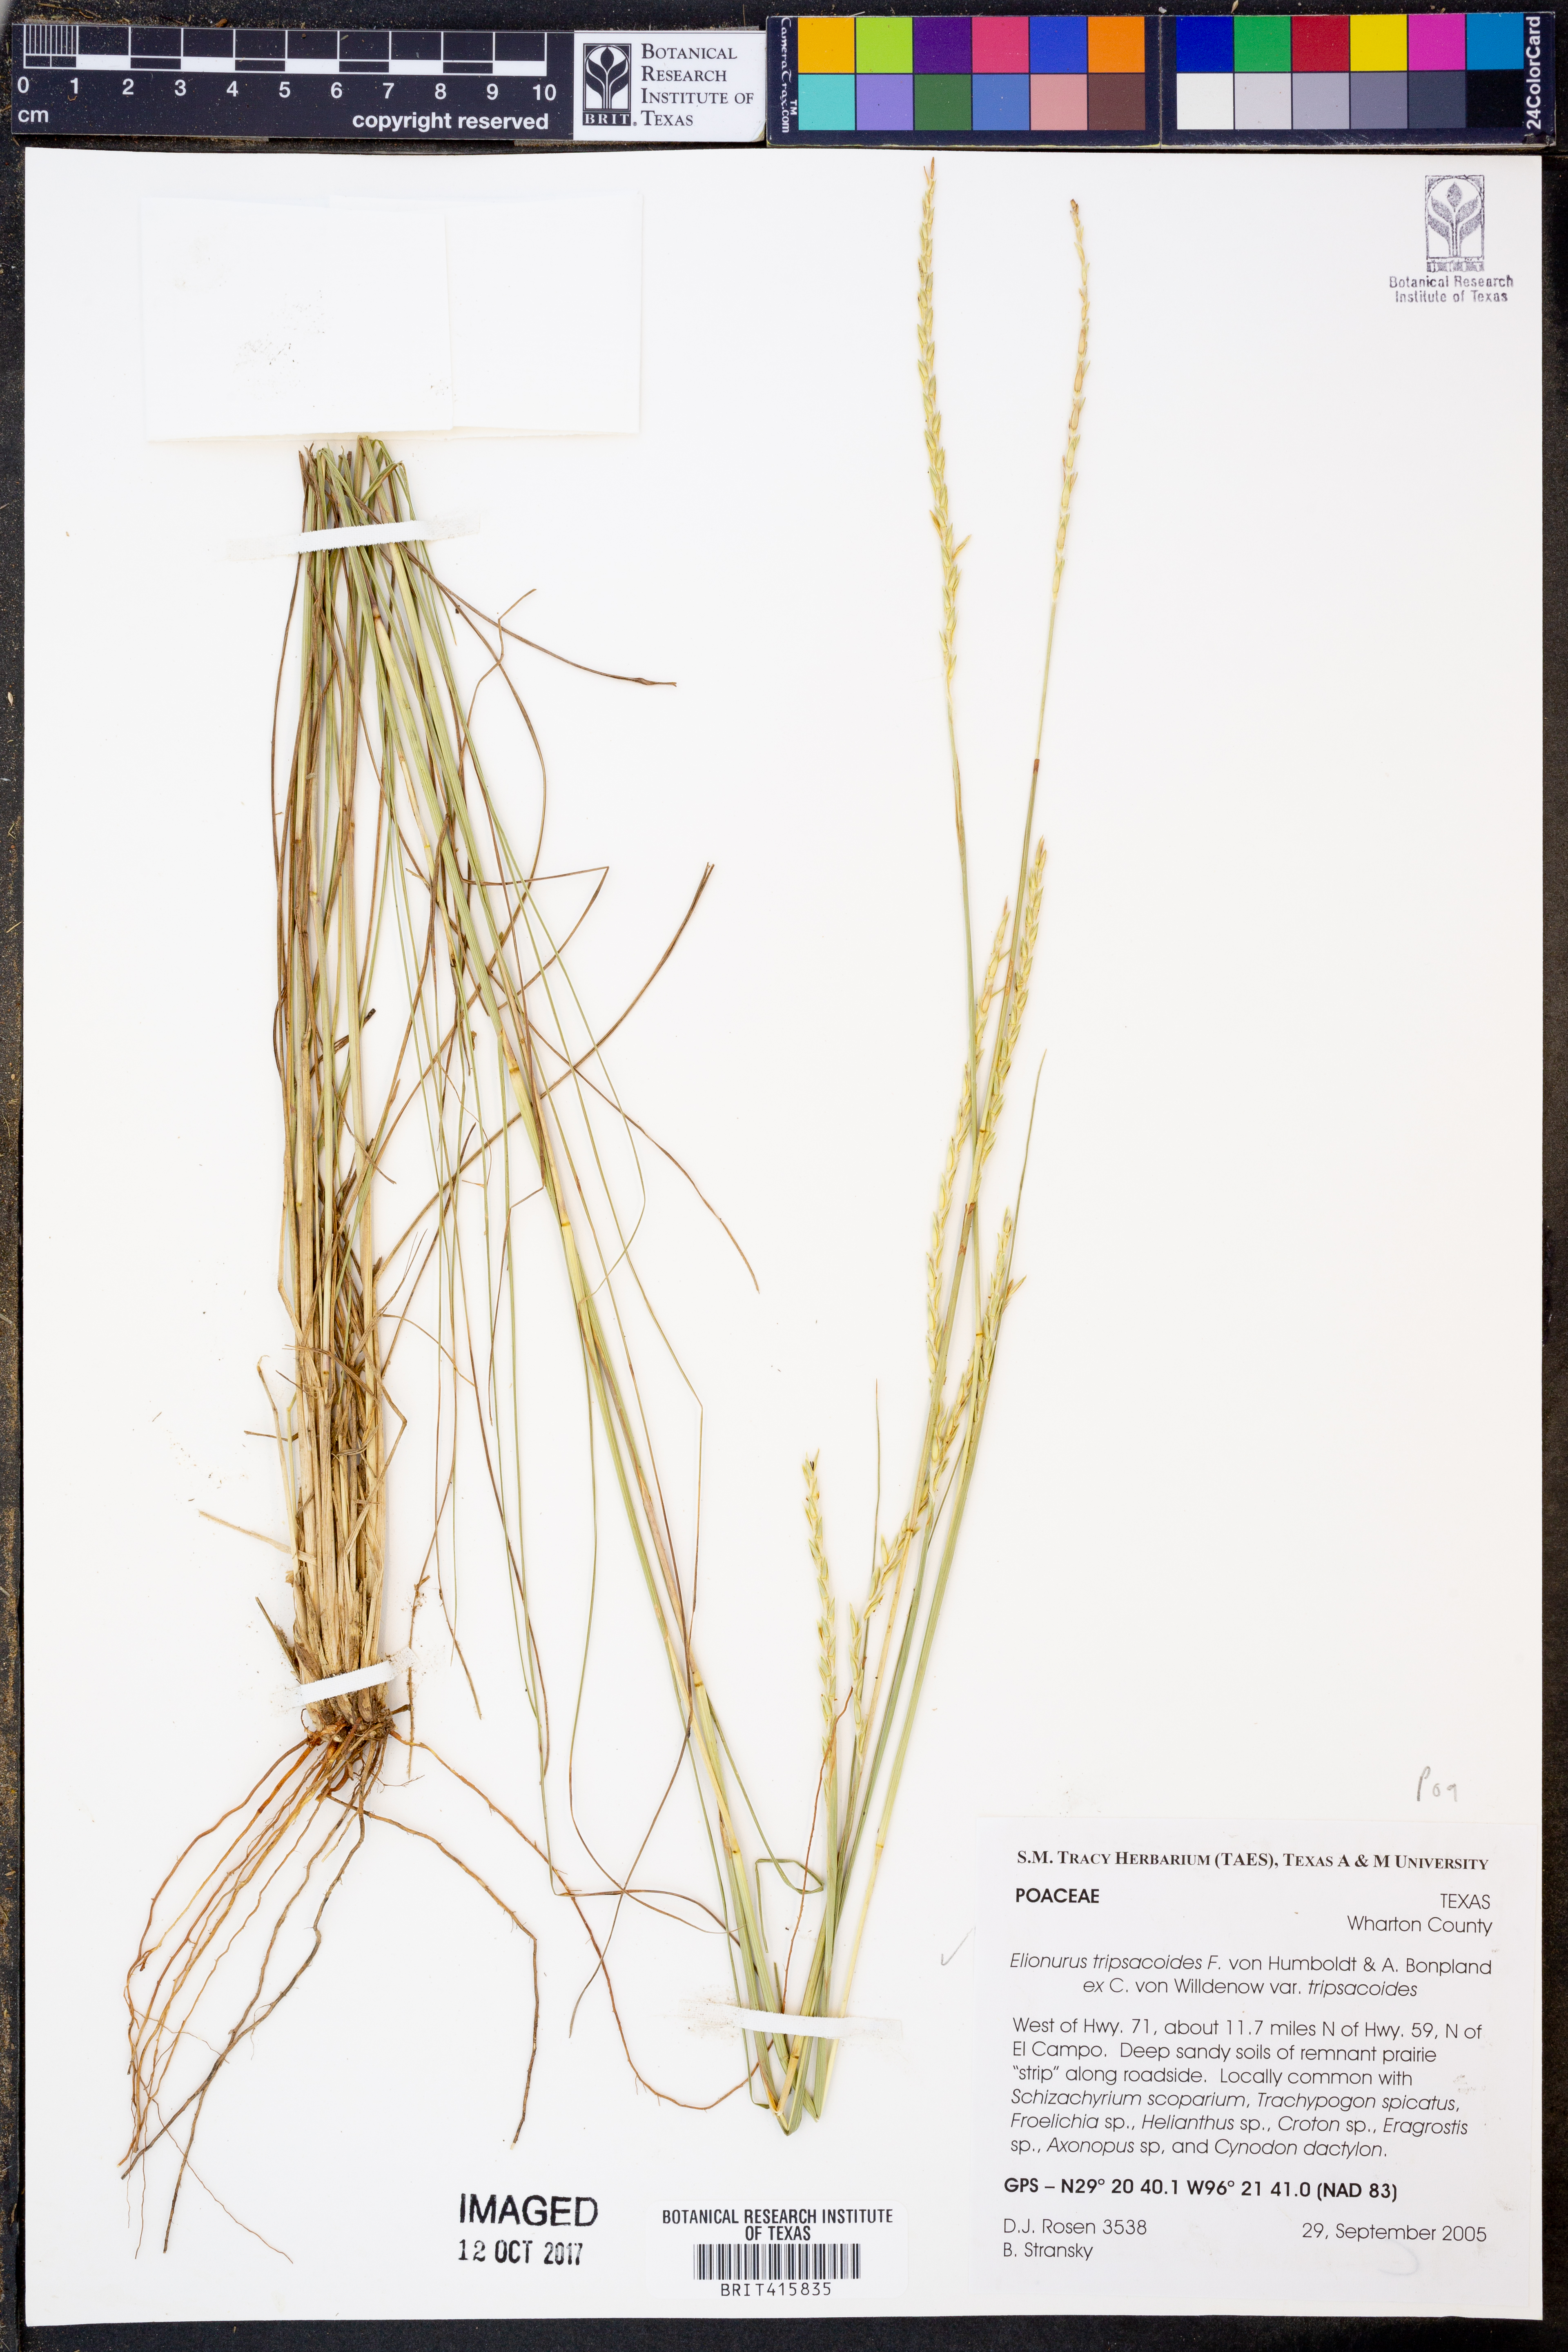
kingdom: Plantae
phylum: Tracheophyta
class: Liliopsida
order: Poales
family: Poaceae
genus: Elionurus
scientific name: Elionurus tripsacoides
